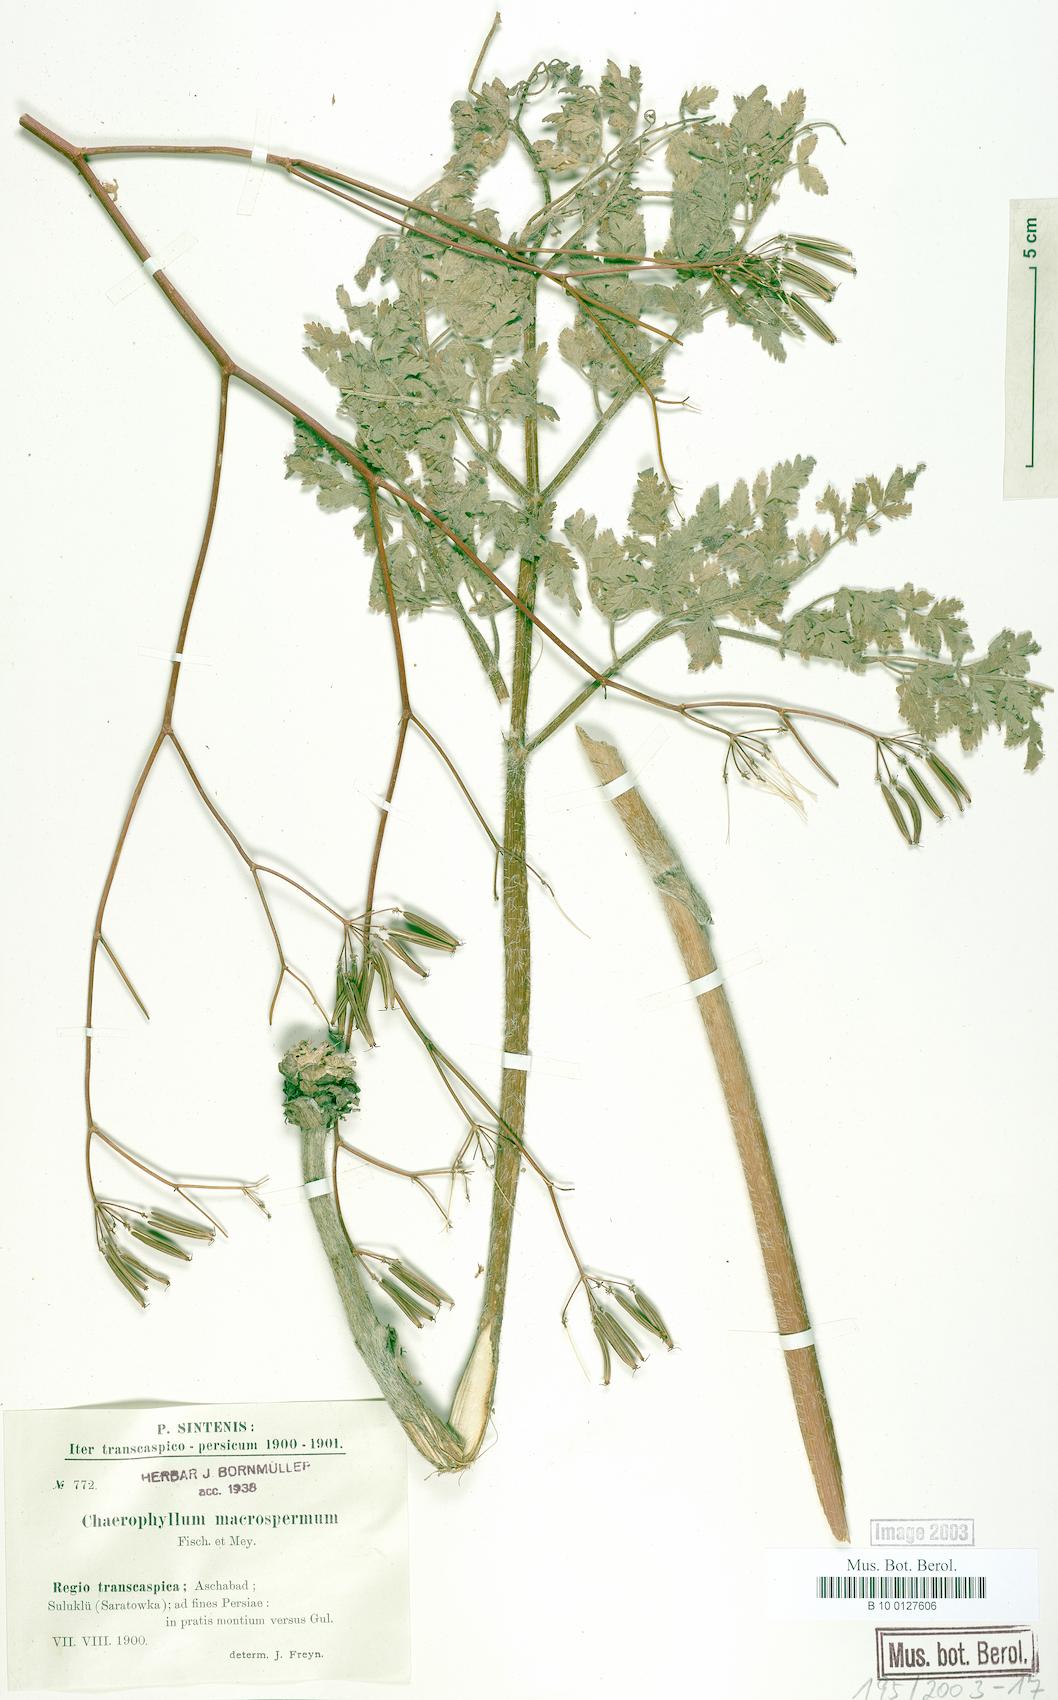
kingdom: Plantae
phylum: Tracheophyta
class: Magnoliopsida
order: Apiales
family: Apiaceae
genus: Chaerophyllum
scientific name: Chaerophyllum macrospermum
